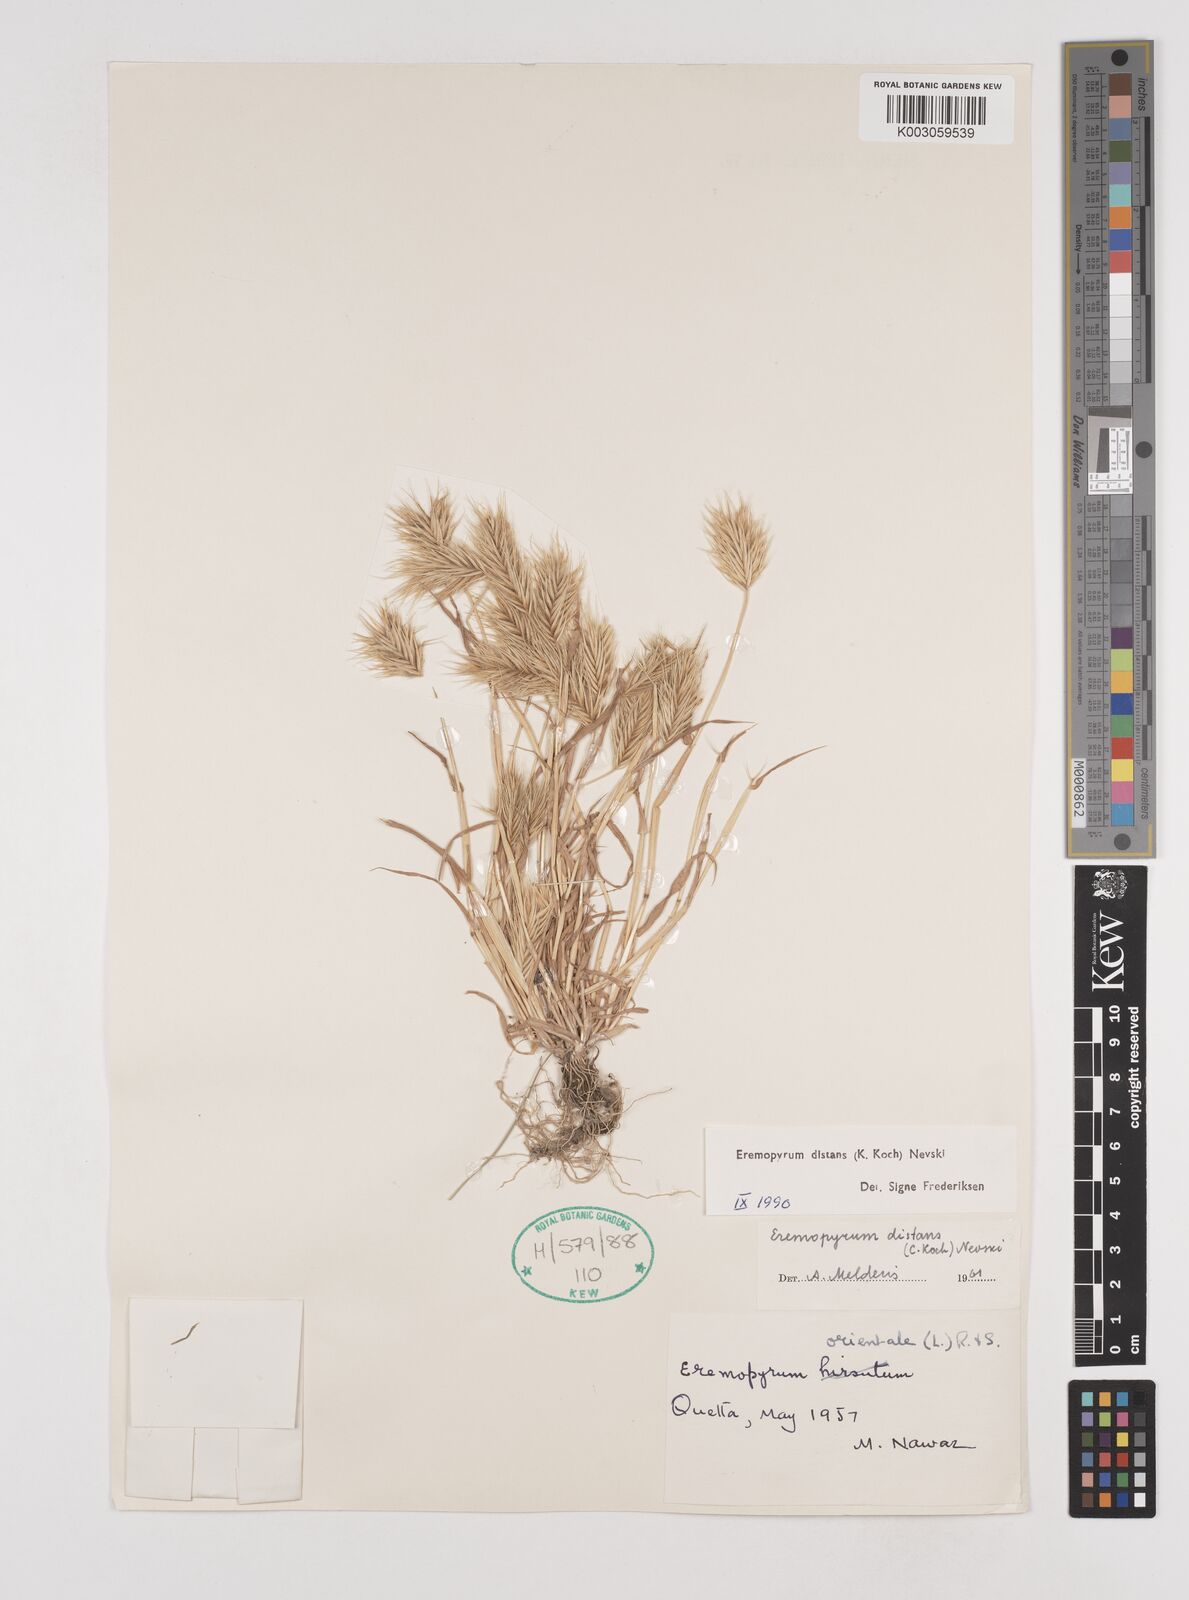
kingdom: Plantae
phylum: Tracheophyta
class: Liliopsida
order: Poales
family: Poaceae
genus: Eremopyrum
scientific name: Eremopyrum distans
